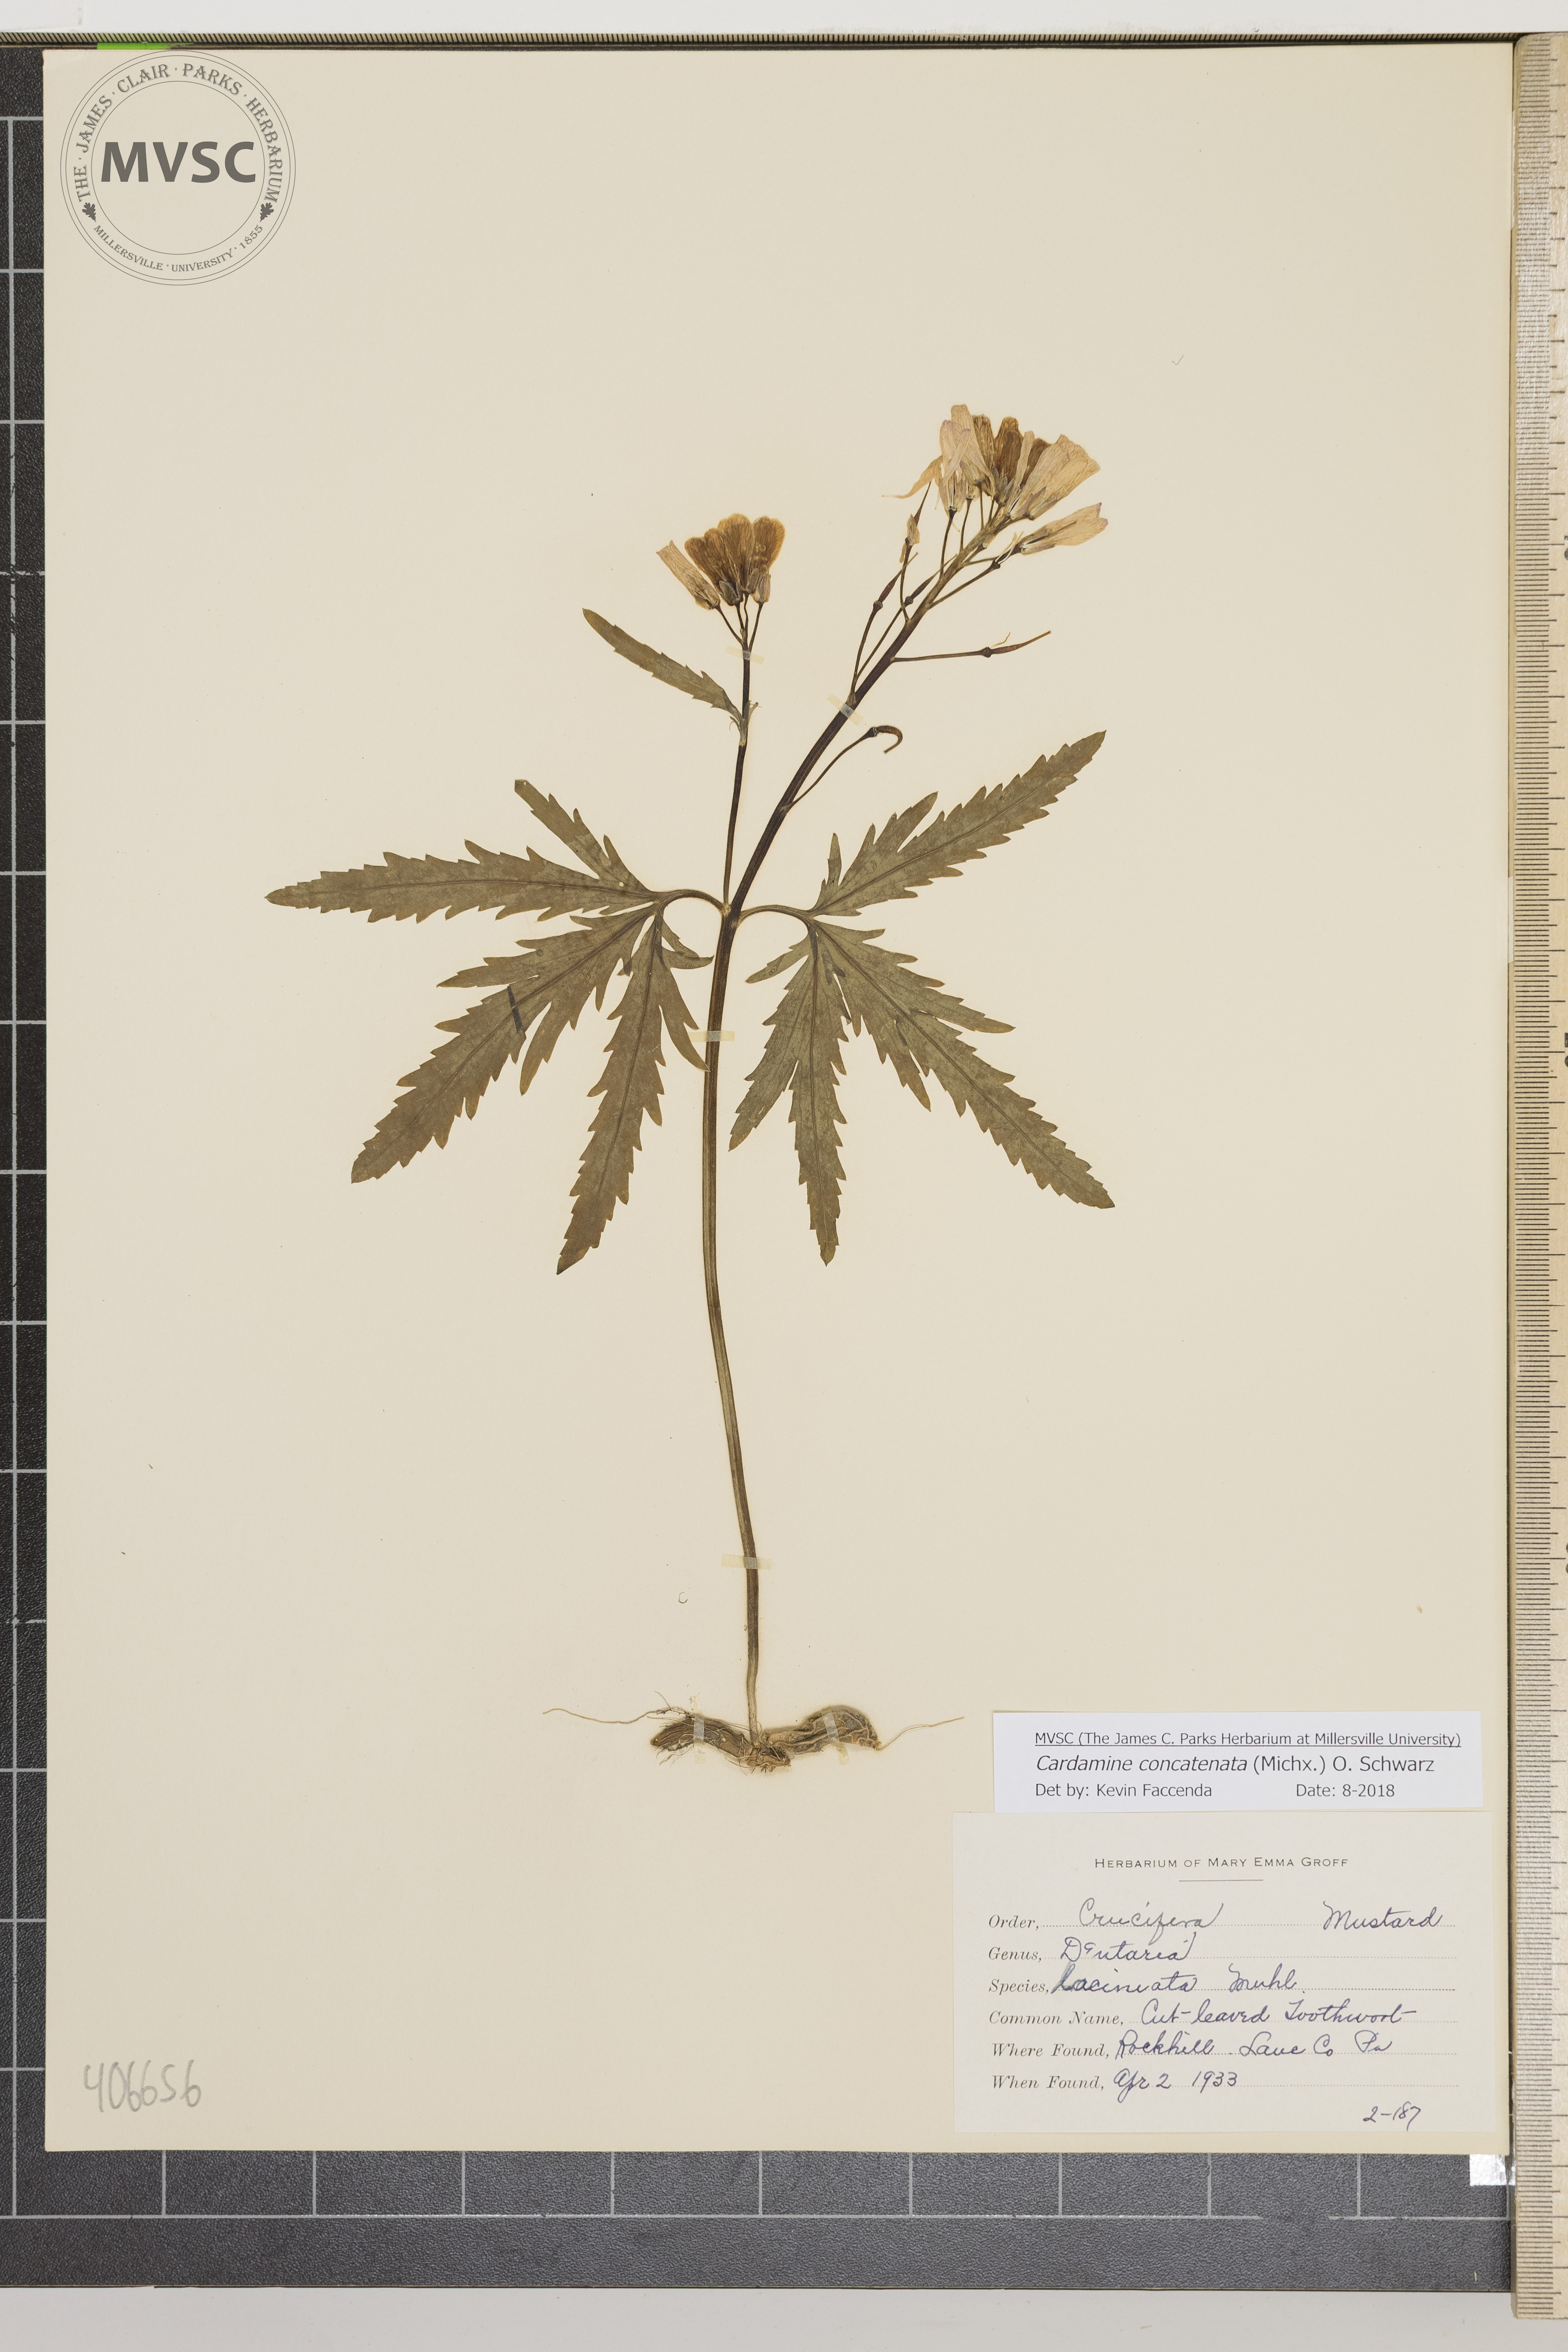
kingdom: Plantae
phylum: Tracheophyta
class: Magnoliopsida
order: Brassicales
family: Brassicaceae
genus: Cardamine
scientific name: Cardamine concatenata
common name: Cut-leaved Toothwort
